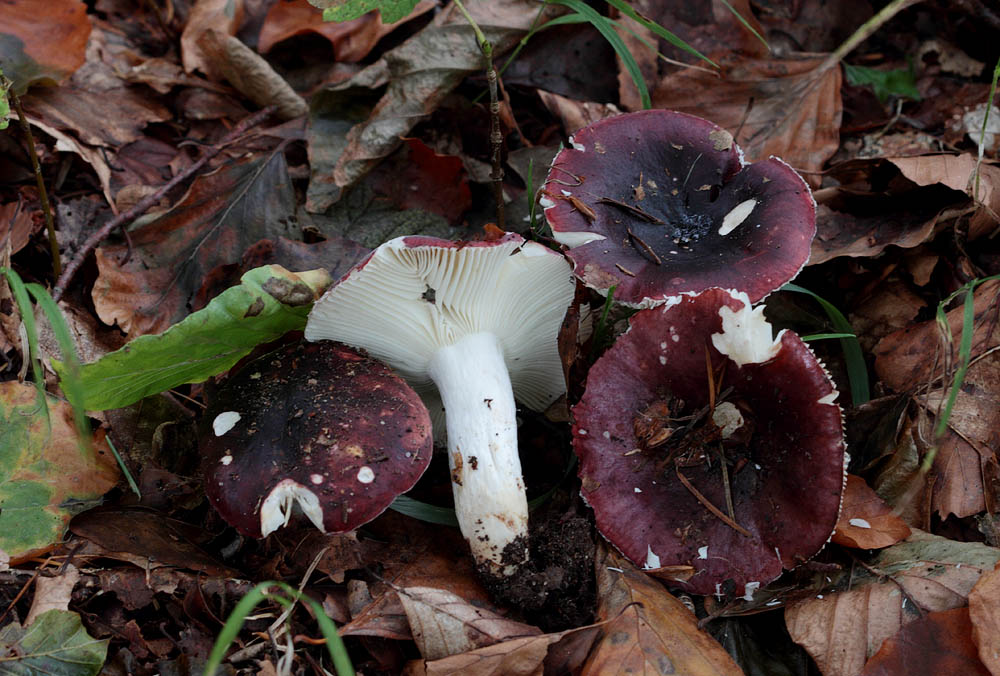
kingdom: Fungi
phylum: Basidiomycota
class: Agaricomycetes
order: Russulales
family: Russulaceae
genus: Russula
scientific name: Russula atropurpurea
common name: purpurbroget skørhat
